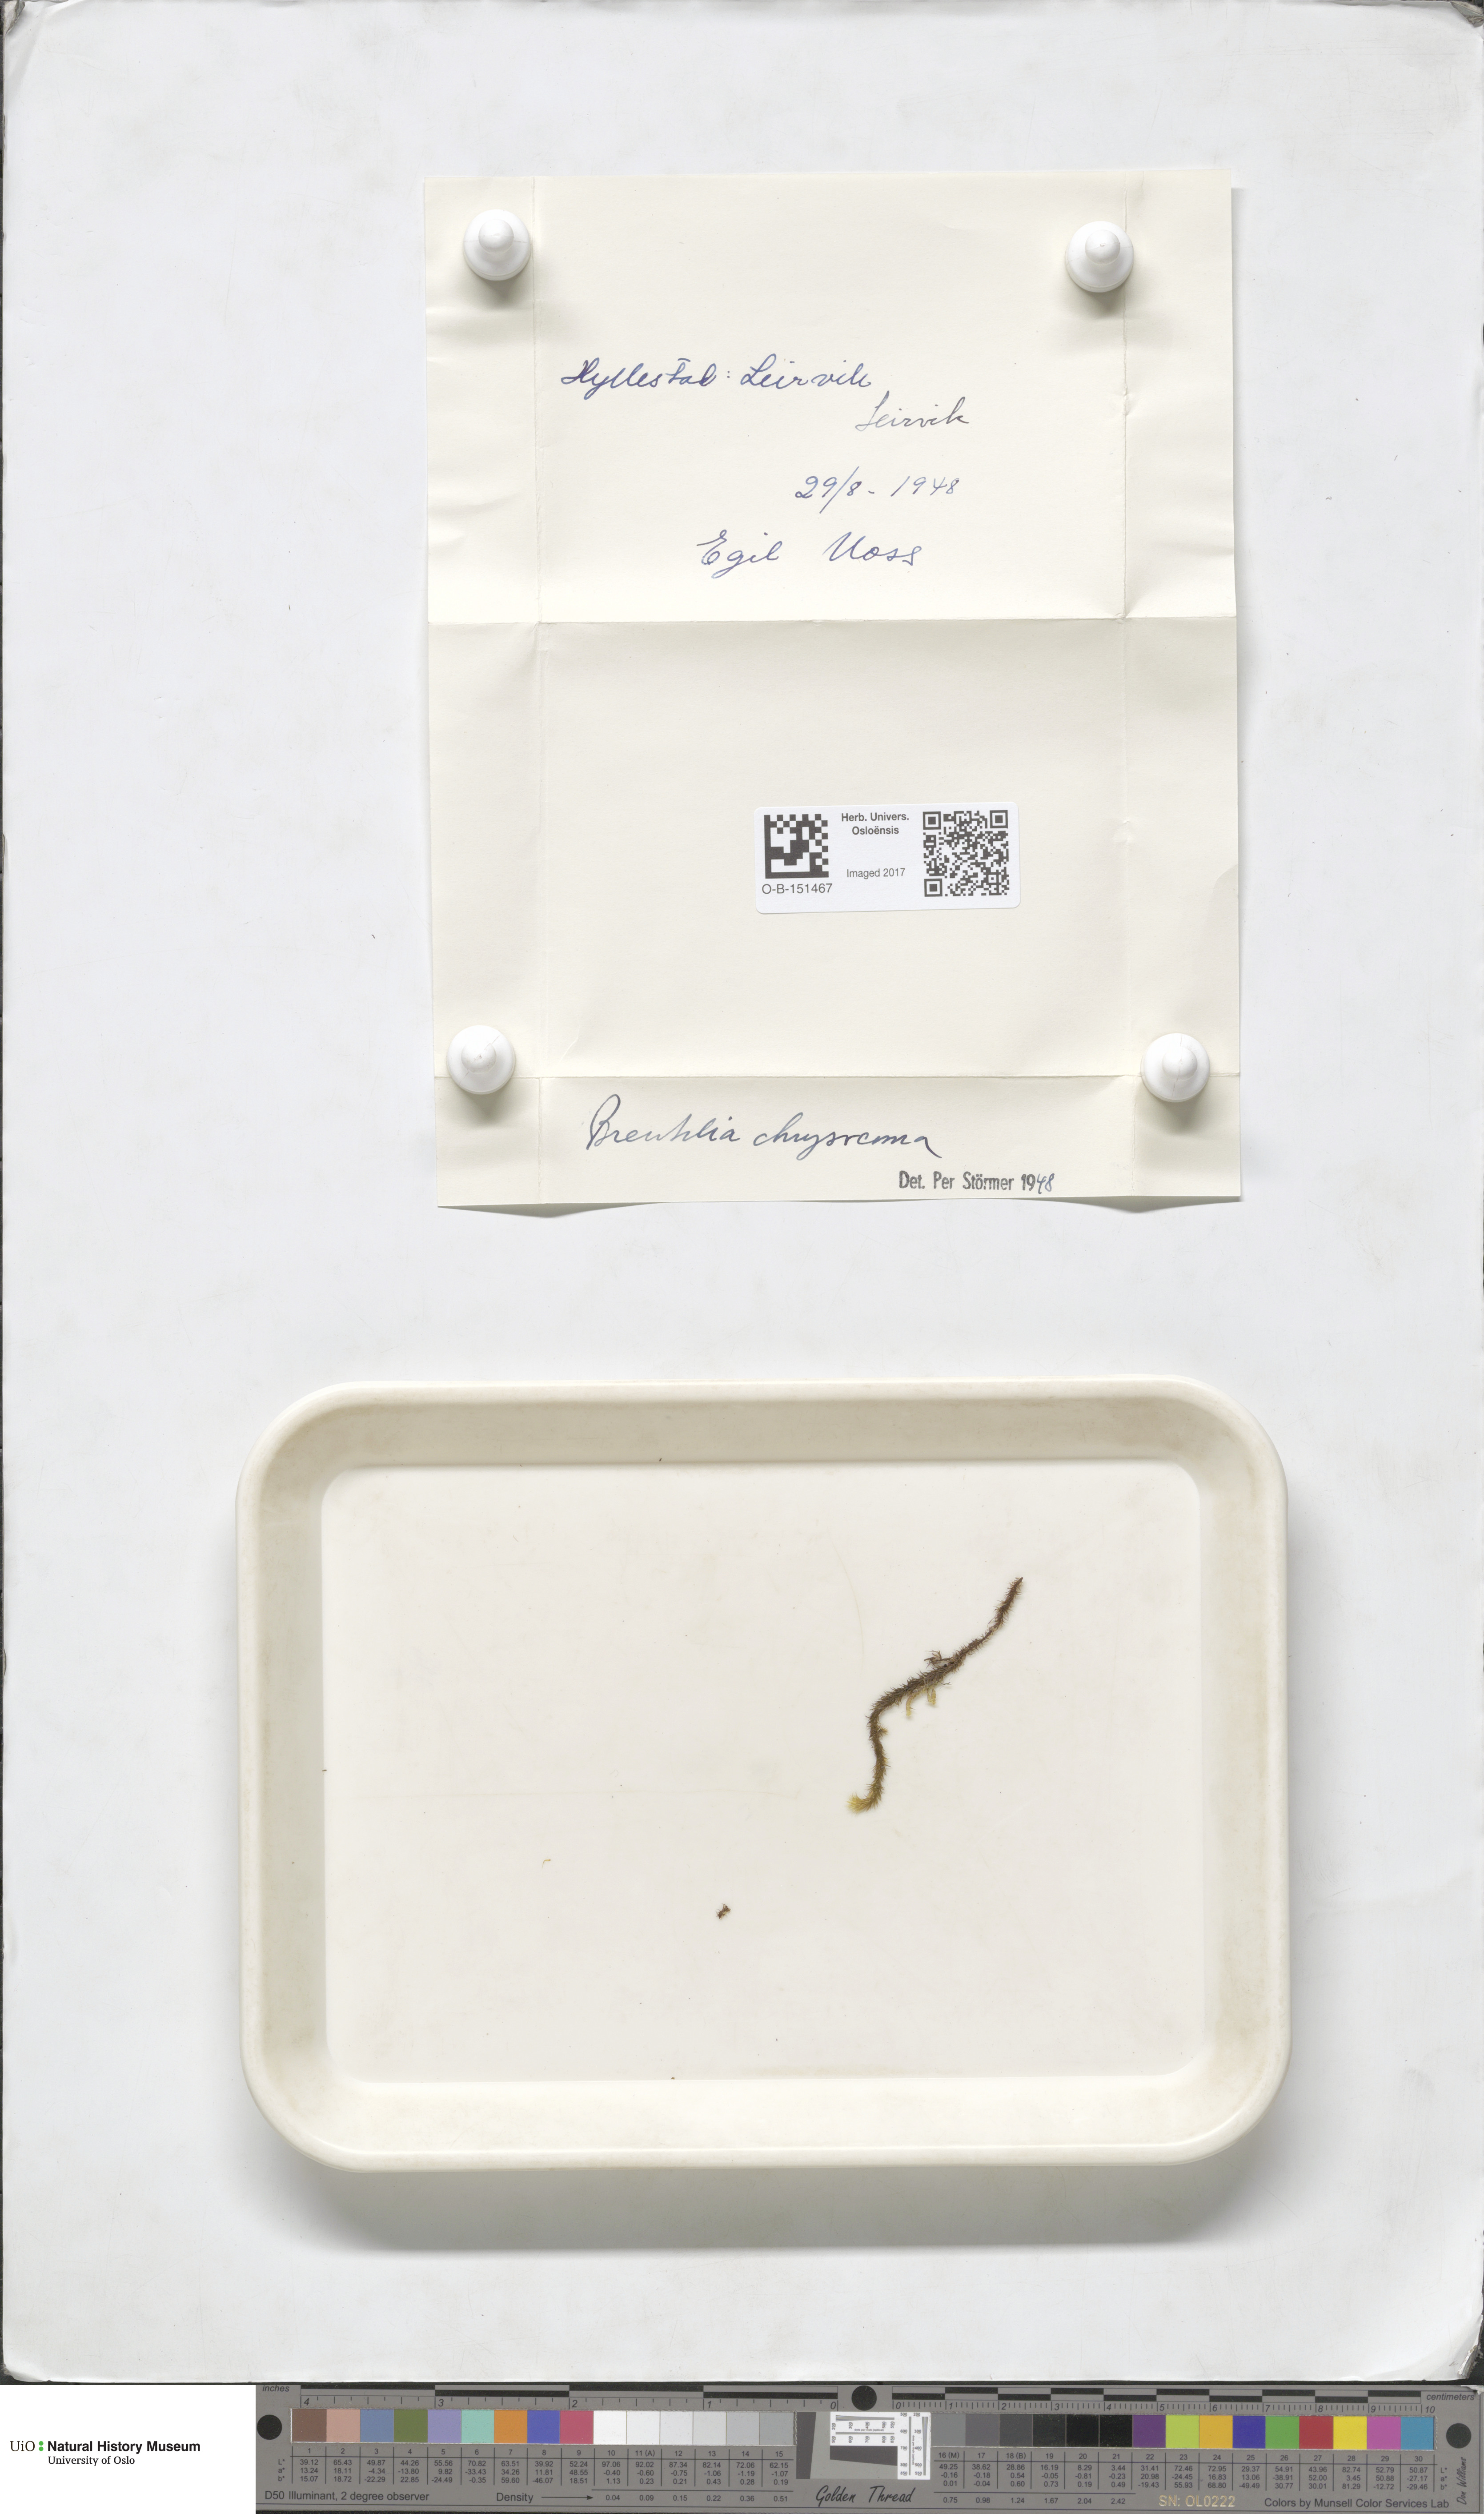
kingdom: Plantae
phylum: Bryophyta
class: Bryopsida
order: Bartramiales
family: Bartramiaceae
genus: Breutelia
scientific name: Breutelia chrysocoma
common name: Bottle-brush moss
